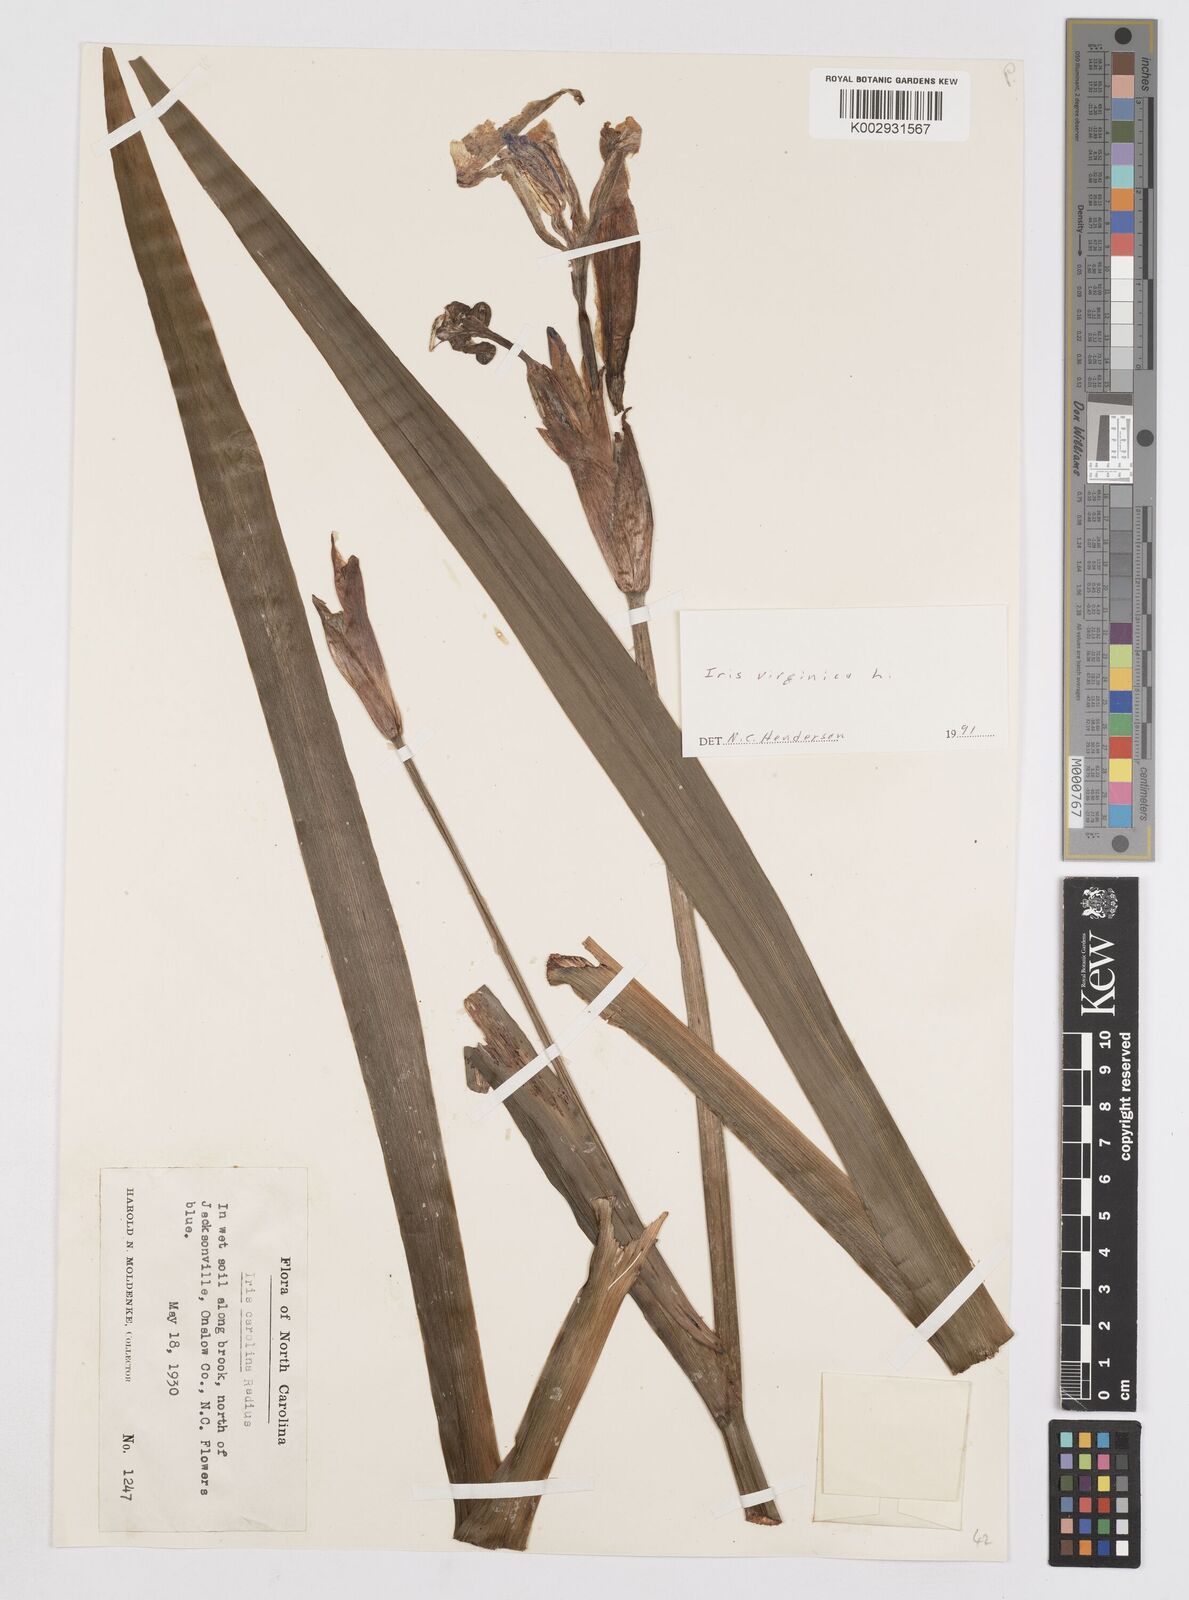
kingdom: Plantae
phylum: Tracheophyta
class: Liliopsida
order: Asparagales
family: Iridaceae
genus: Iris
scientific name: Iris virginica
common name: Southern blue flag
